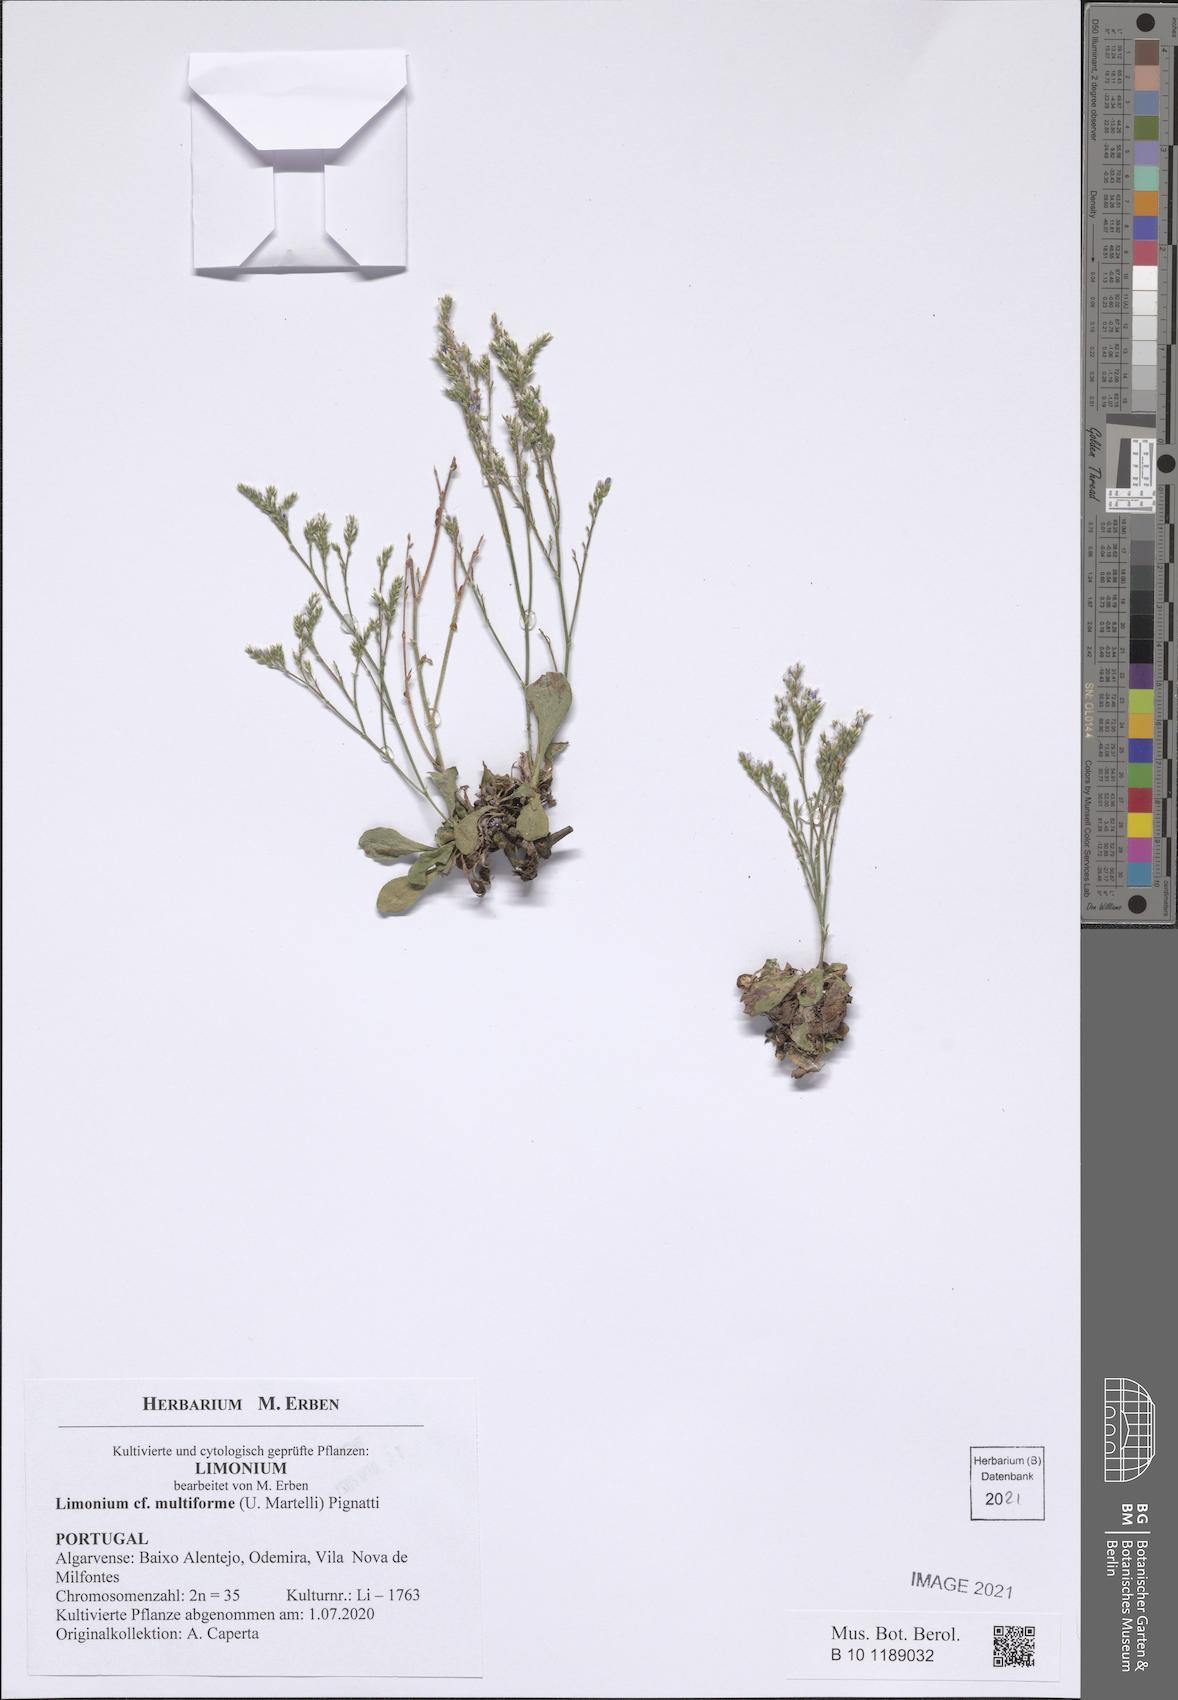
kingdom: Plantae
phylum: Tracheophyta
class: Magnoliopsida
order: Caryophyllales
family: Plumbaginaceae
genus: Limonium
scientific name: Limonium multiforme
